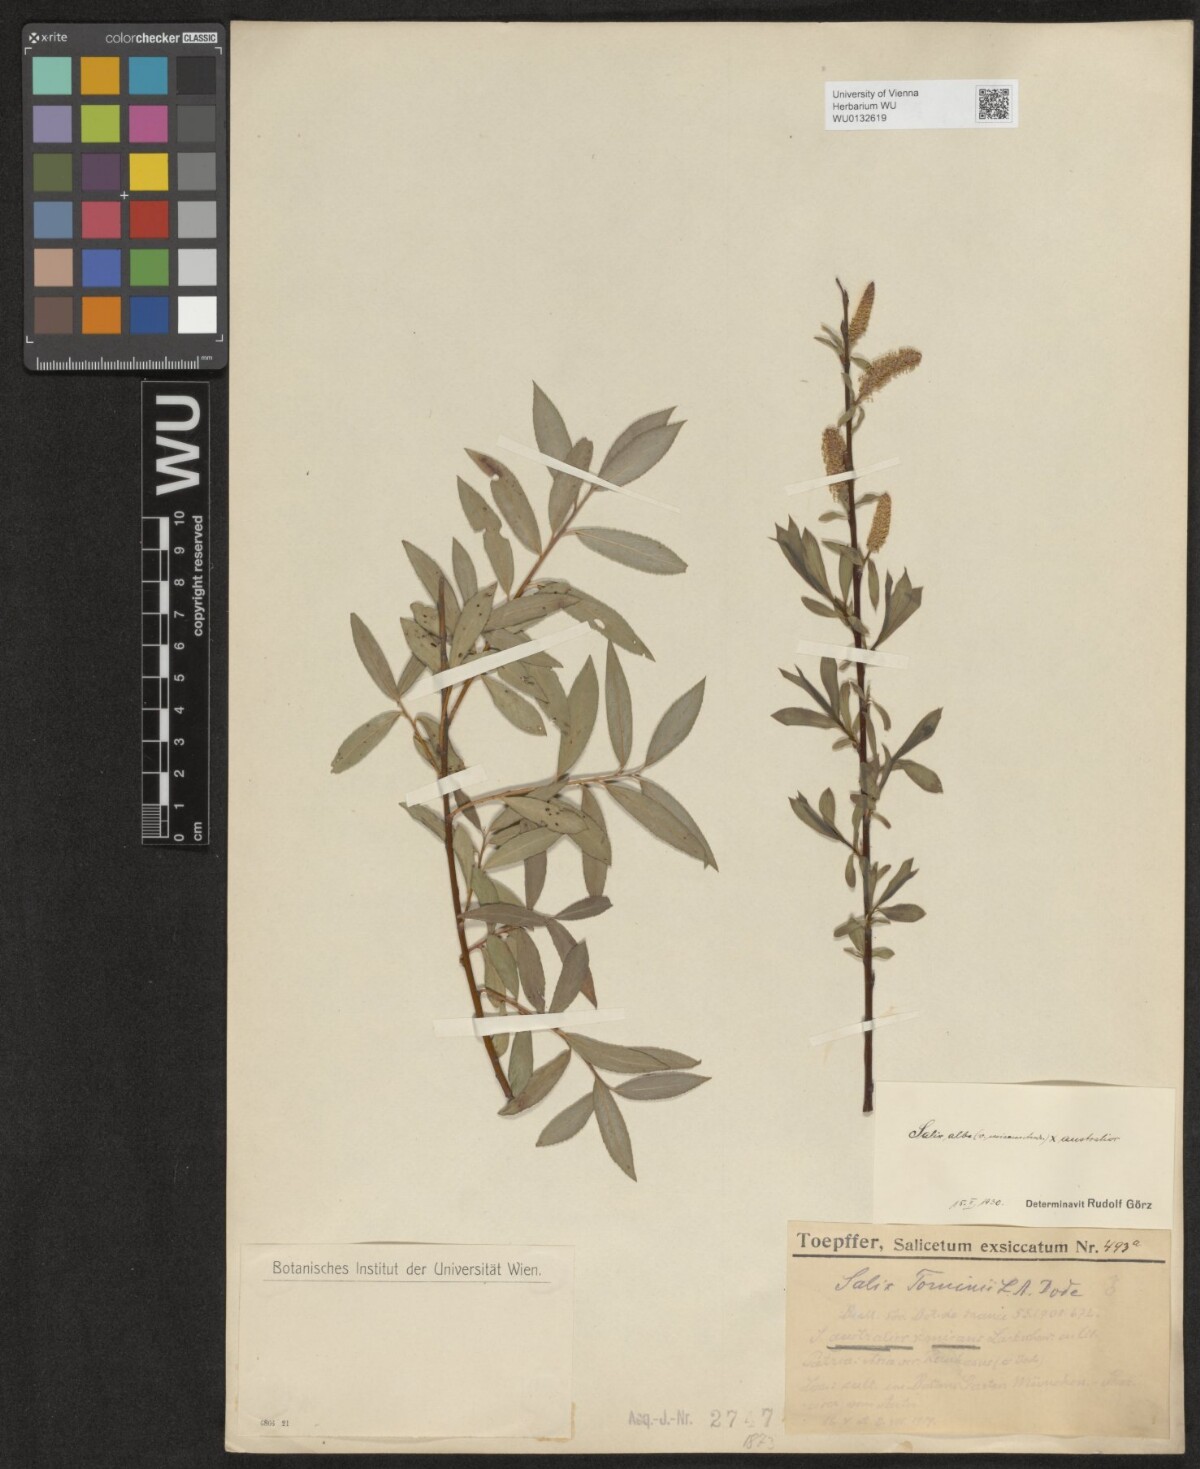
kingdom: Plantae
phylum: Tracheophyta
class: Magnoliopsida
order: Malpighiales
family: Salicaceae
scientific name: Salicaceae
